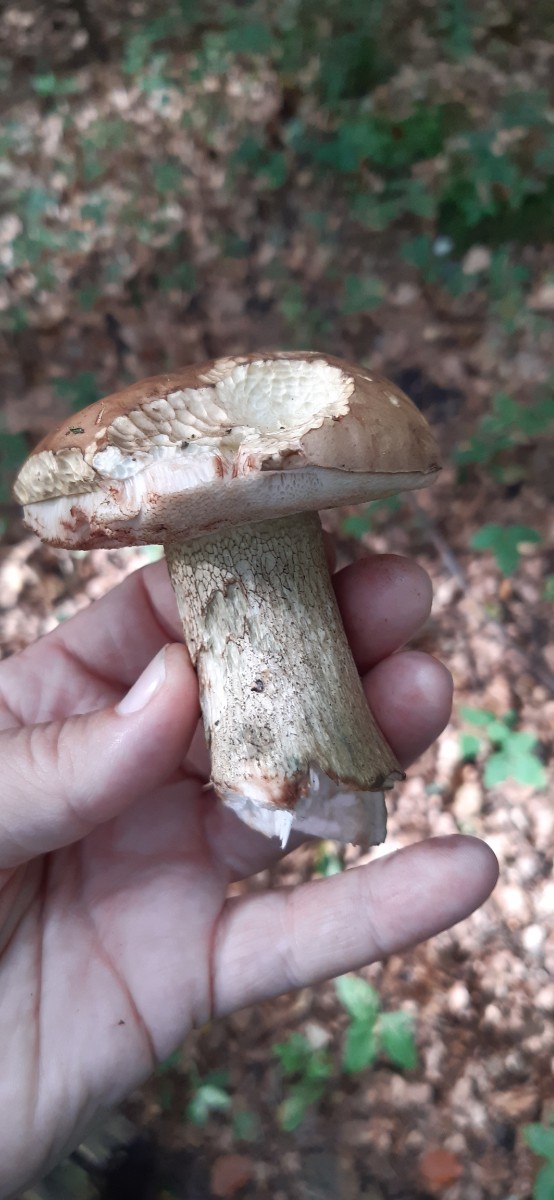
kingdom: Fungi
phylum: Basidiomycota
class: Agaricomycetes
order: Boletales
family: Boletaceae
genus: Tylopilus
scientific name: Tylopilus felleus
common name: galderørhat
